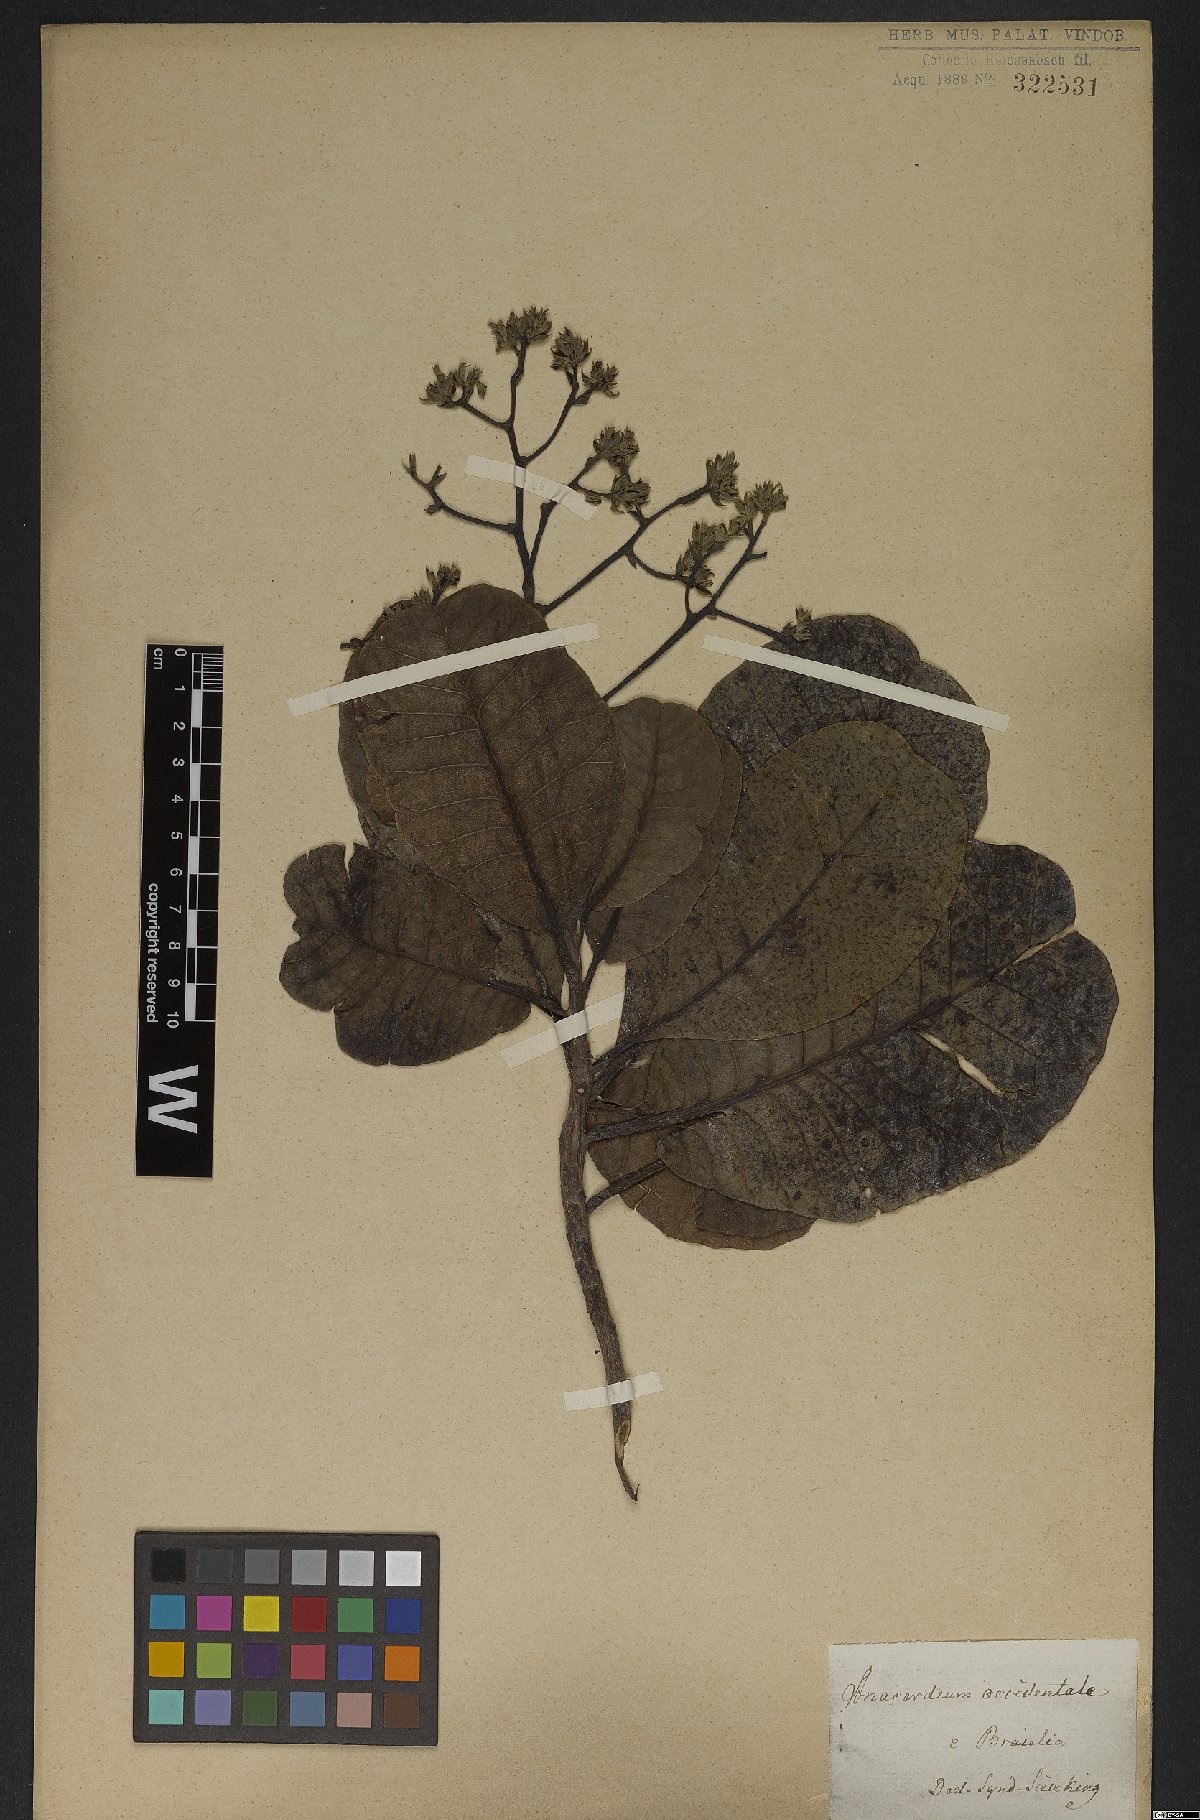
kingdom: Plantae
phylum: Tracheophyta
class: Magnoliopsida
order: Sapindales
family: Anacardiaceae
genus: Anacardium
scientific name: Anacardium occidentale
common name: Cashew
